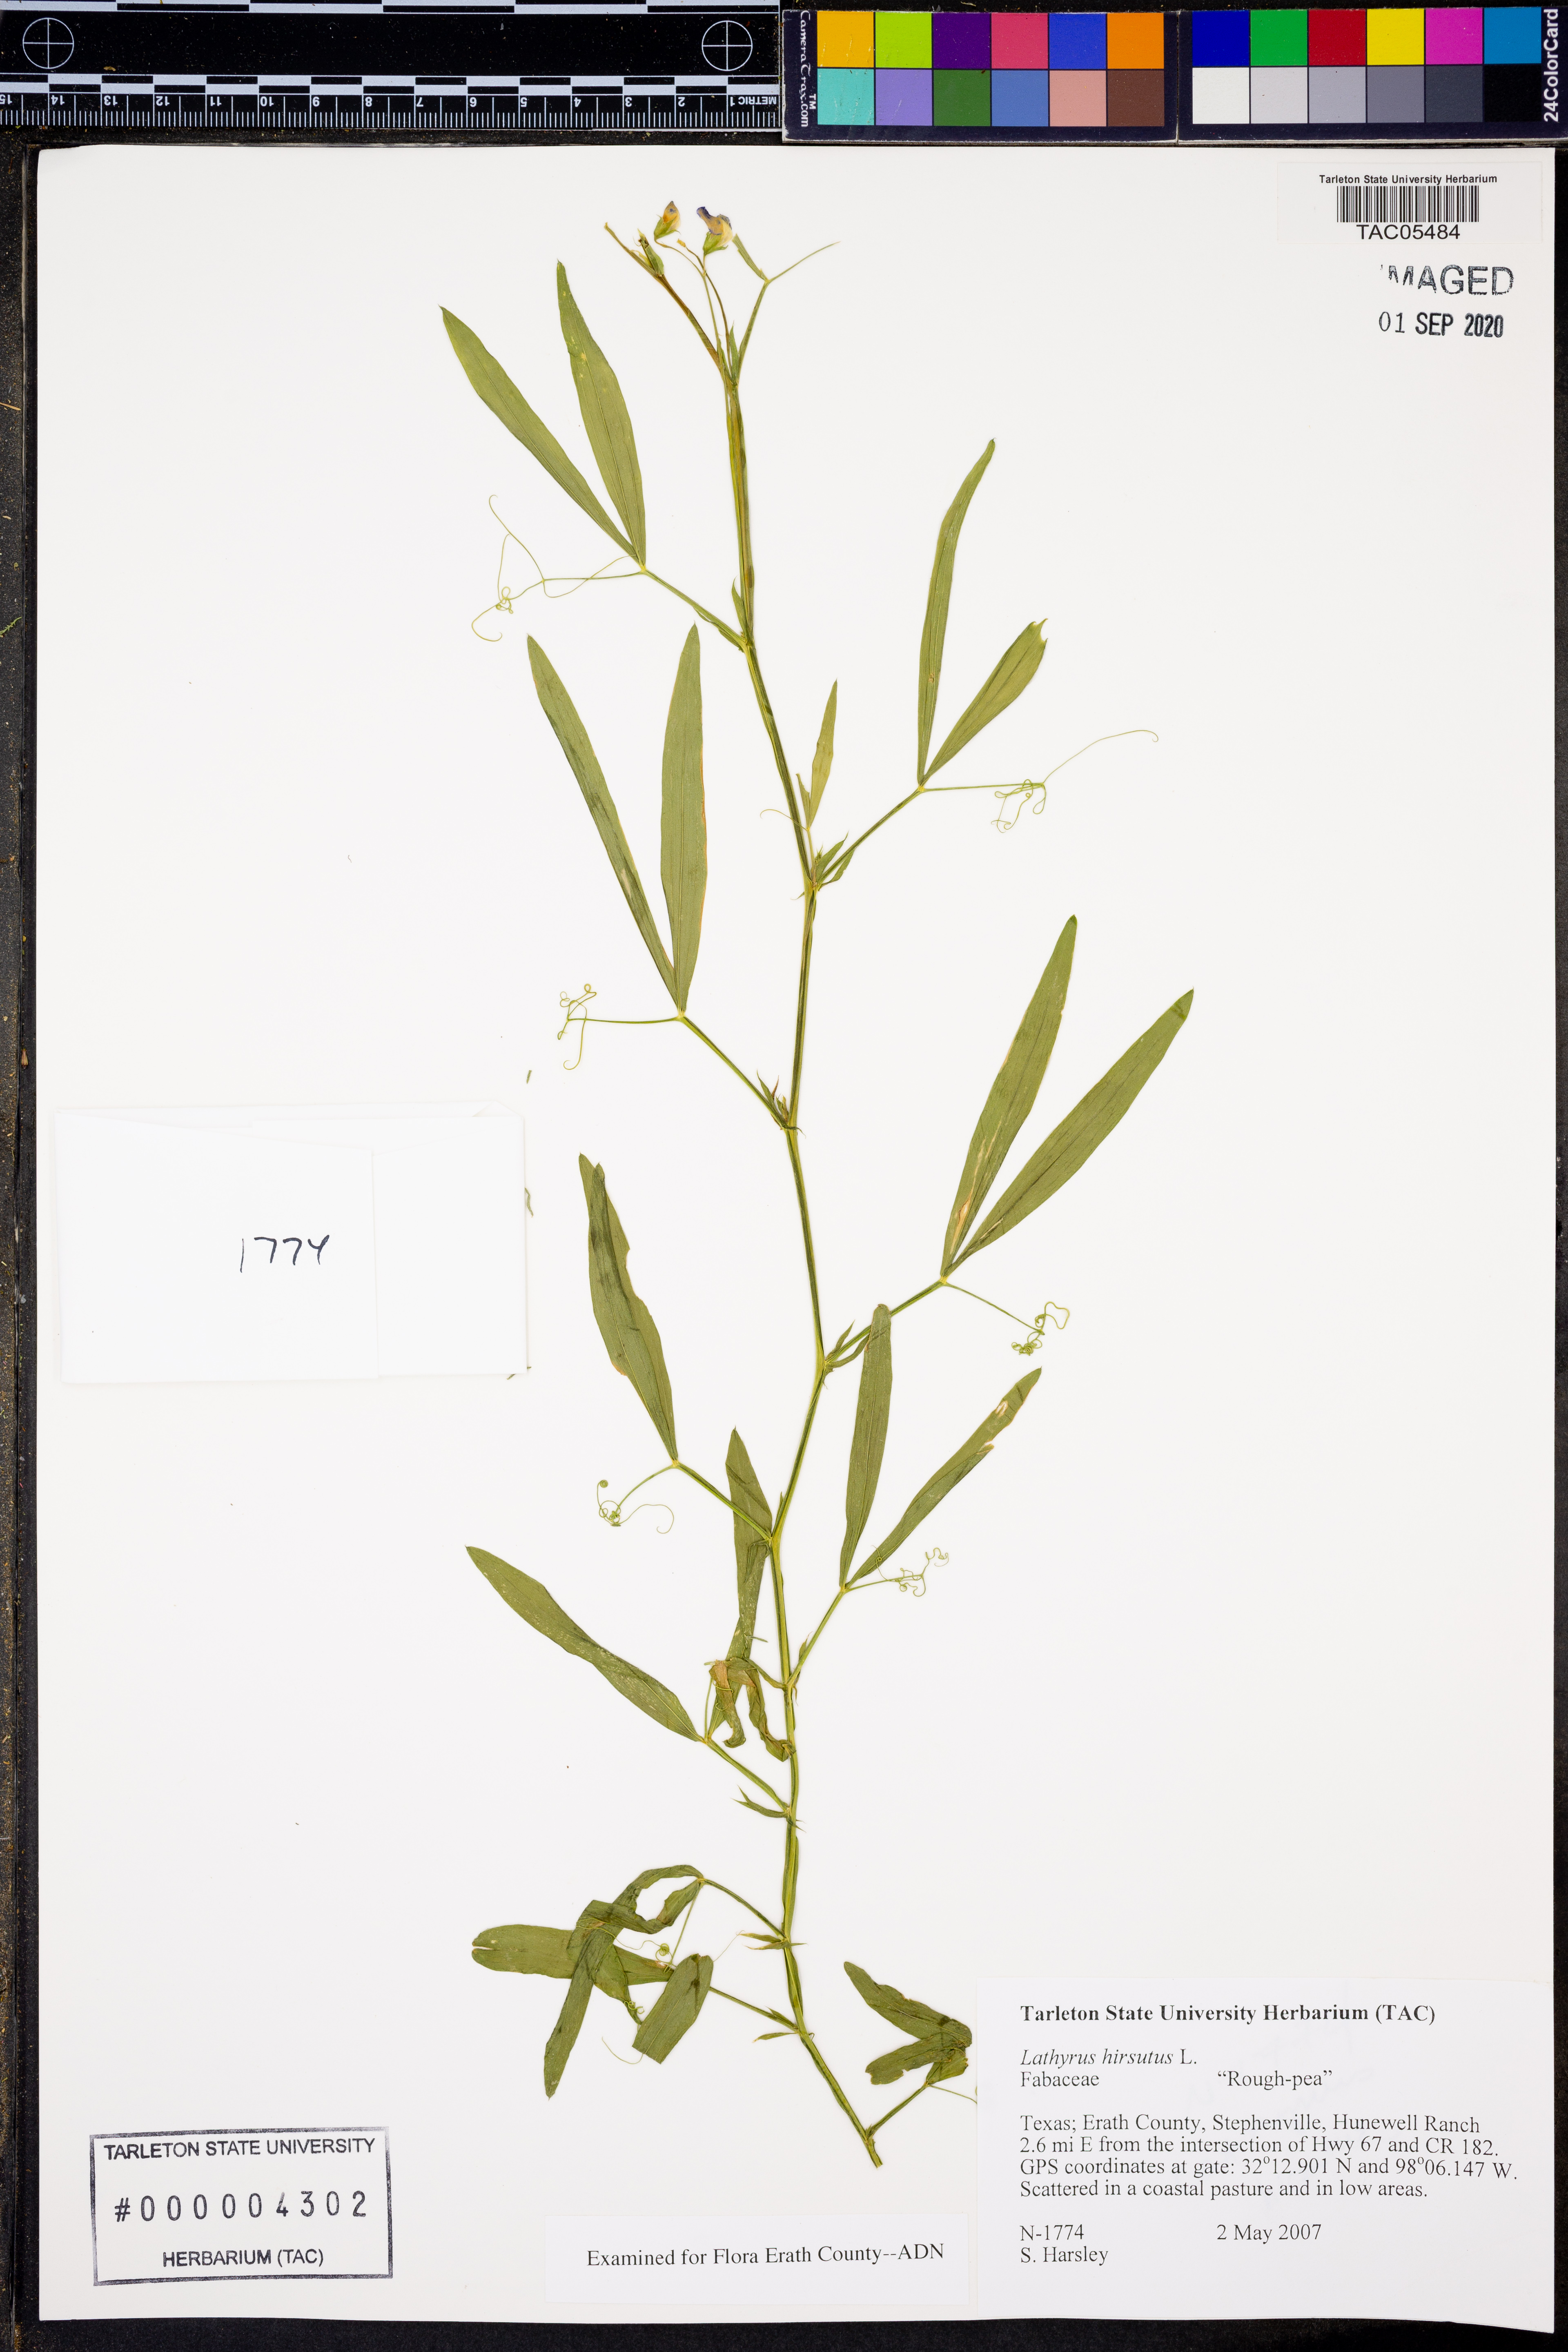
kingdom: Plantae
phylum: Tracheophyta
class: Magnoliopsida
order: Fabales
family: Fabaceae
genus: Lathyrus
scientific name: Lathyrus hirsutus
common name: Hairy vetchling
